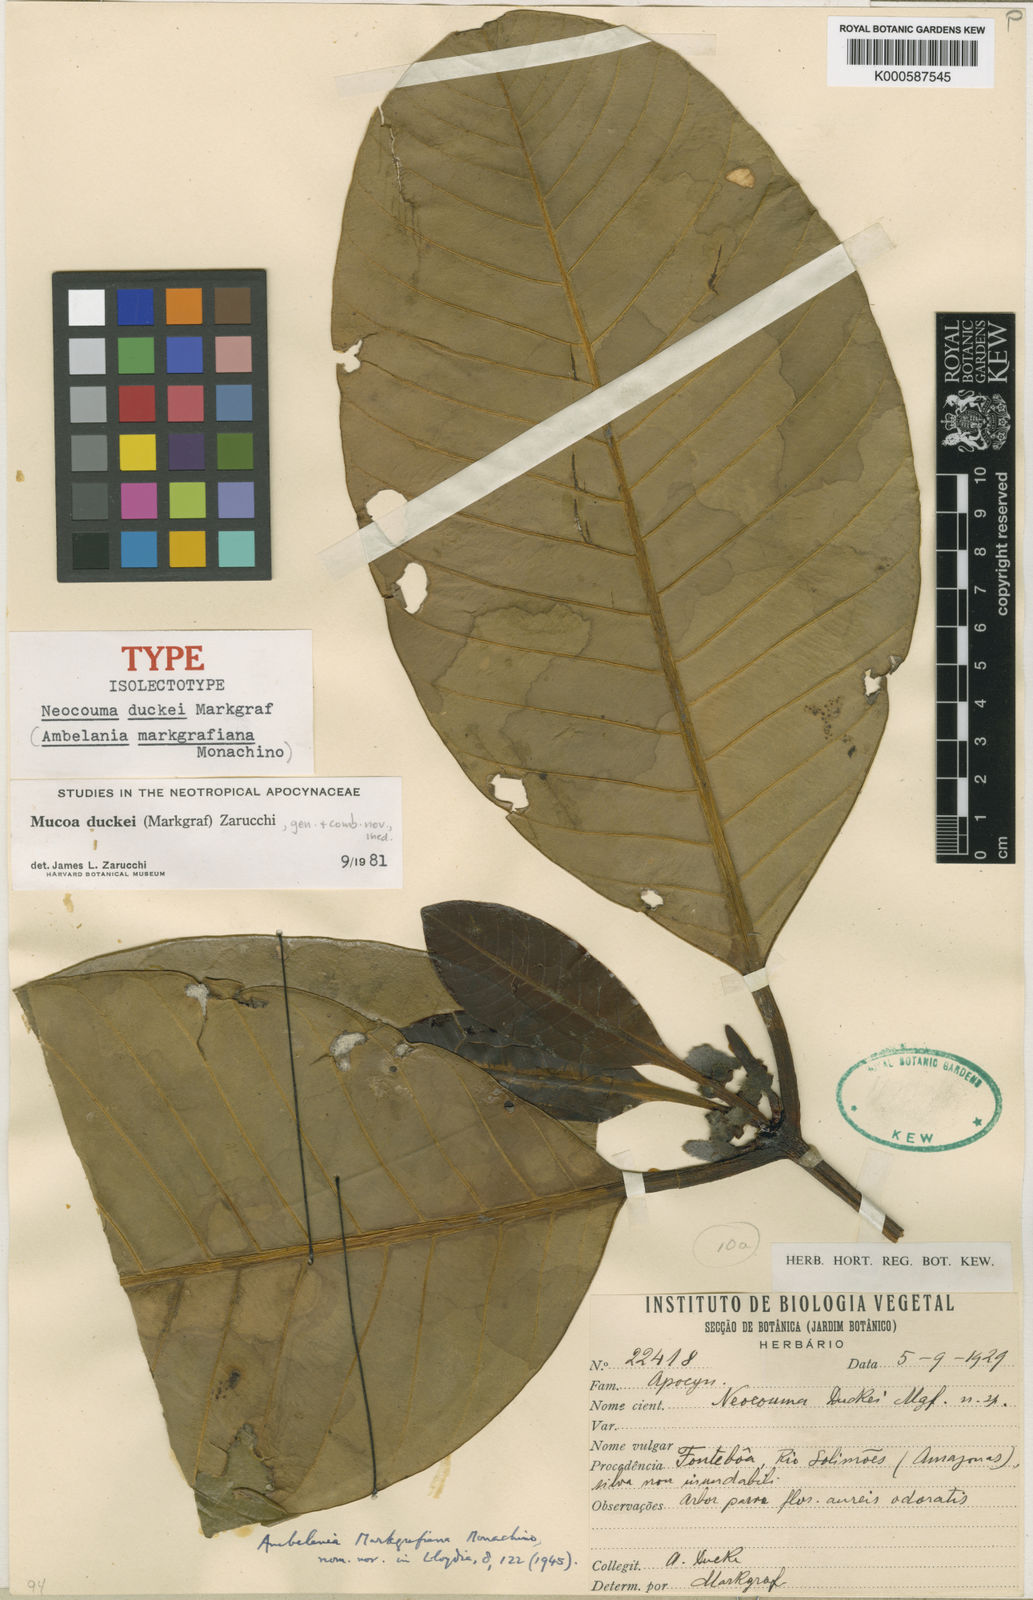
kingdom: Plantae
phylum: Tracheophyta
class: Magnoliopsida
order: Gentianales
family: Apocynaceae
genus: Mucoa
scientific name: Mucoa duckei
